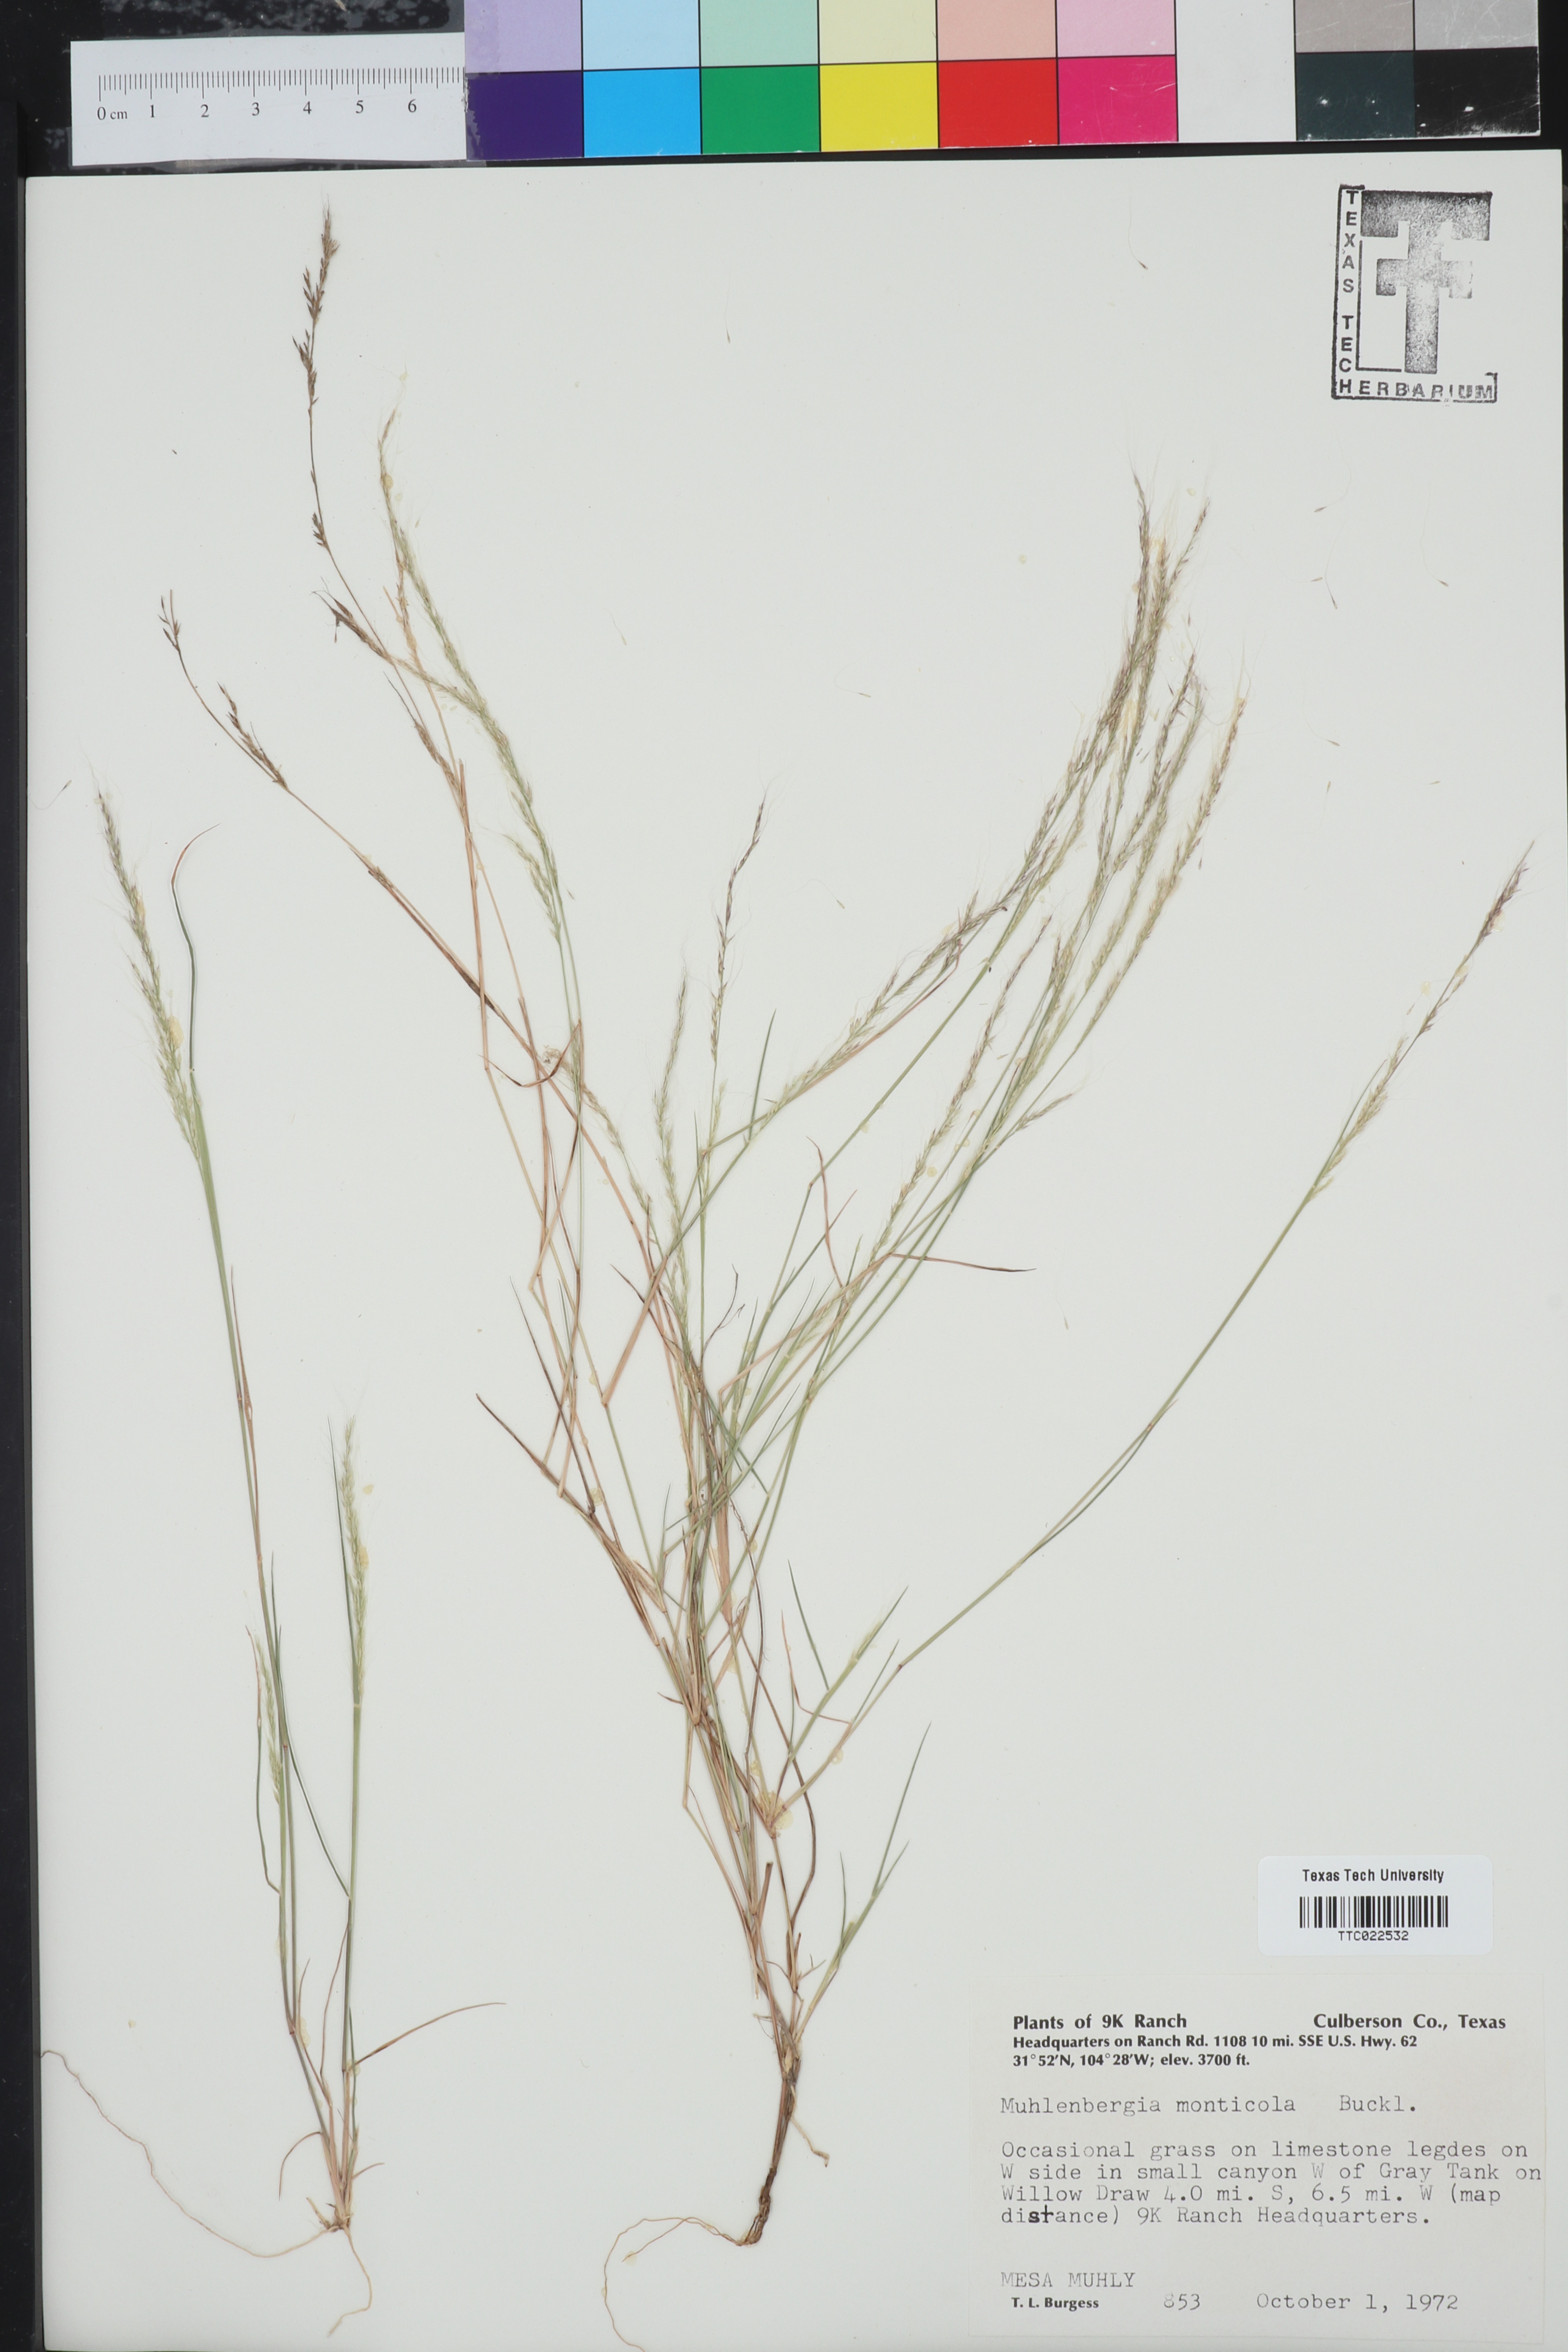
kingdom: Plantae
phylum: Tracheophyta
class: Liliopsida
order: Poales
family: Poaceae
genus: Muhlenbergia
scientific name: Muhlenbergia tenuifolia
